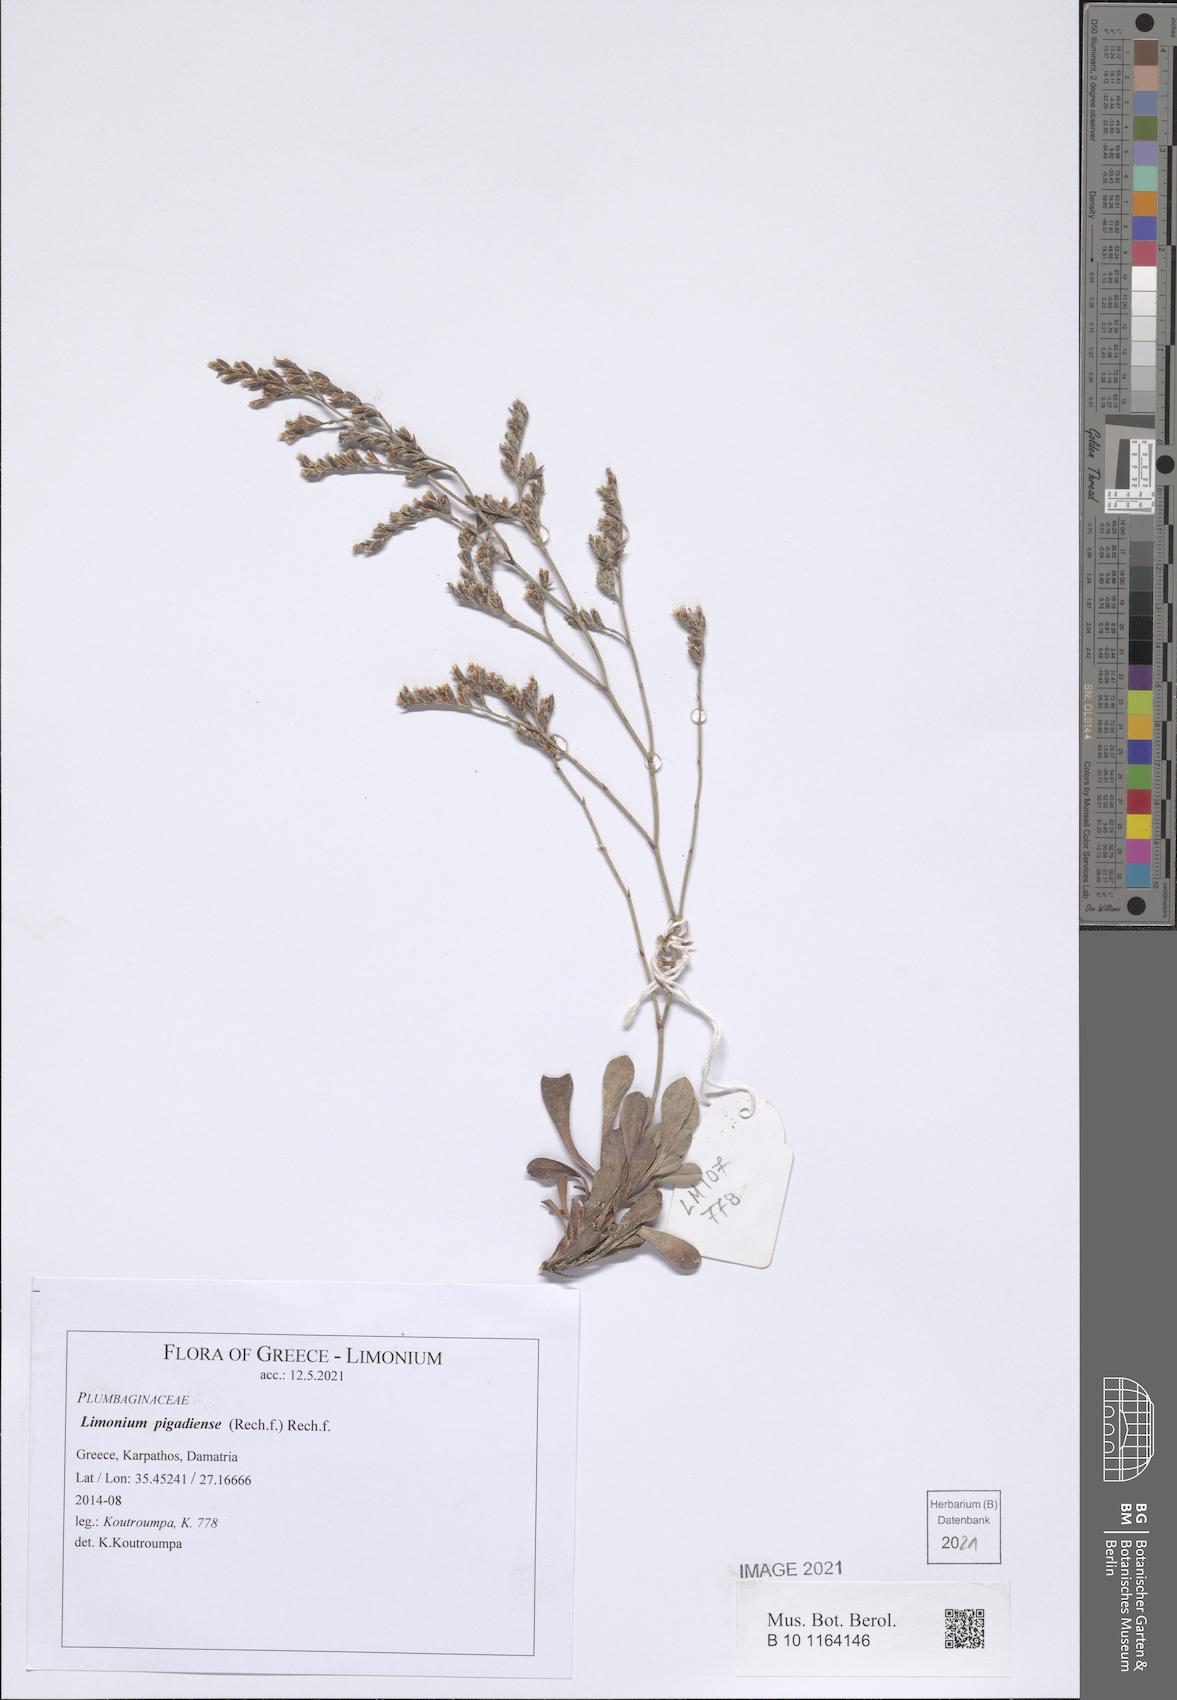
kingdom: Plantae
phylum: Tracheophyta
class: Magnoliopsida
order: Caryophyllales
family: Plumbaginaceae
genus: Limonium
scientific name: Limonium pigadiense
